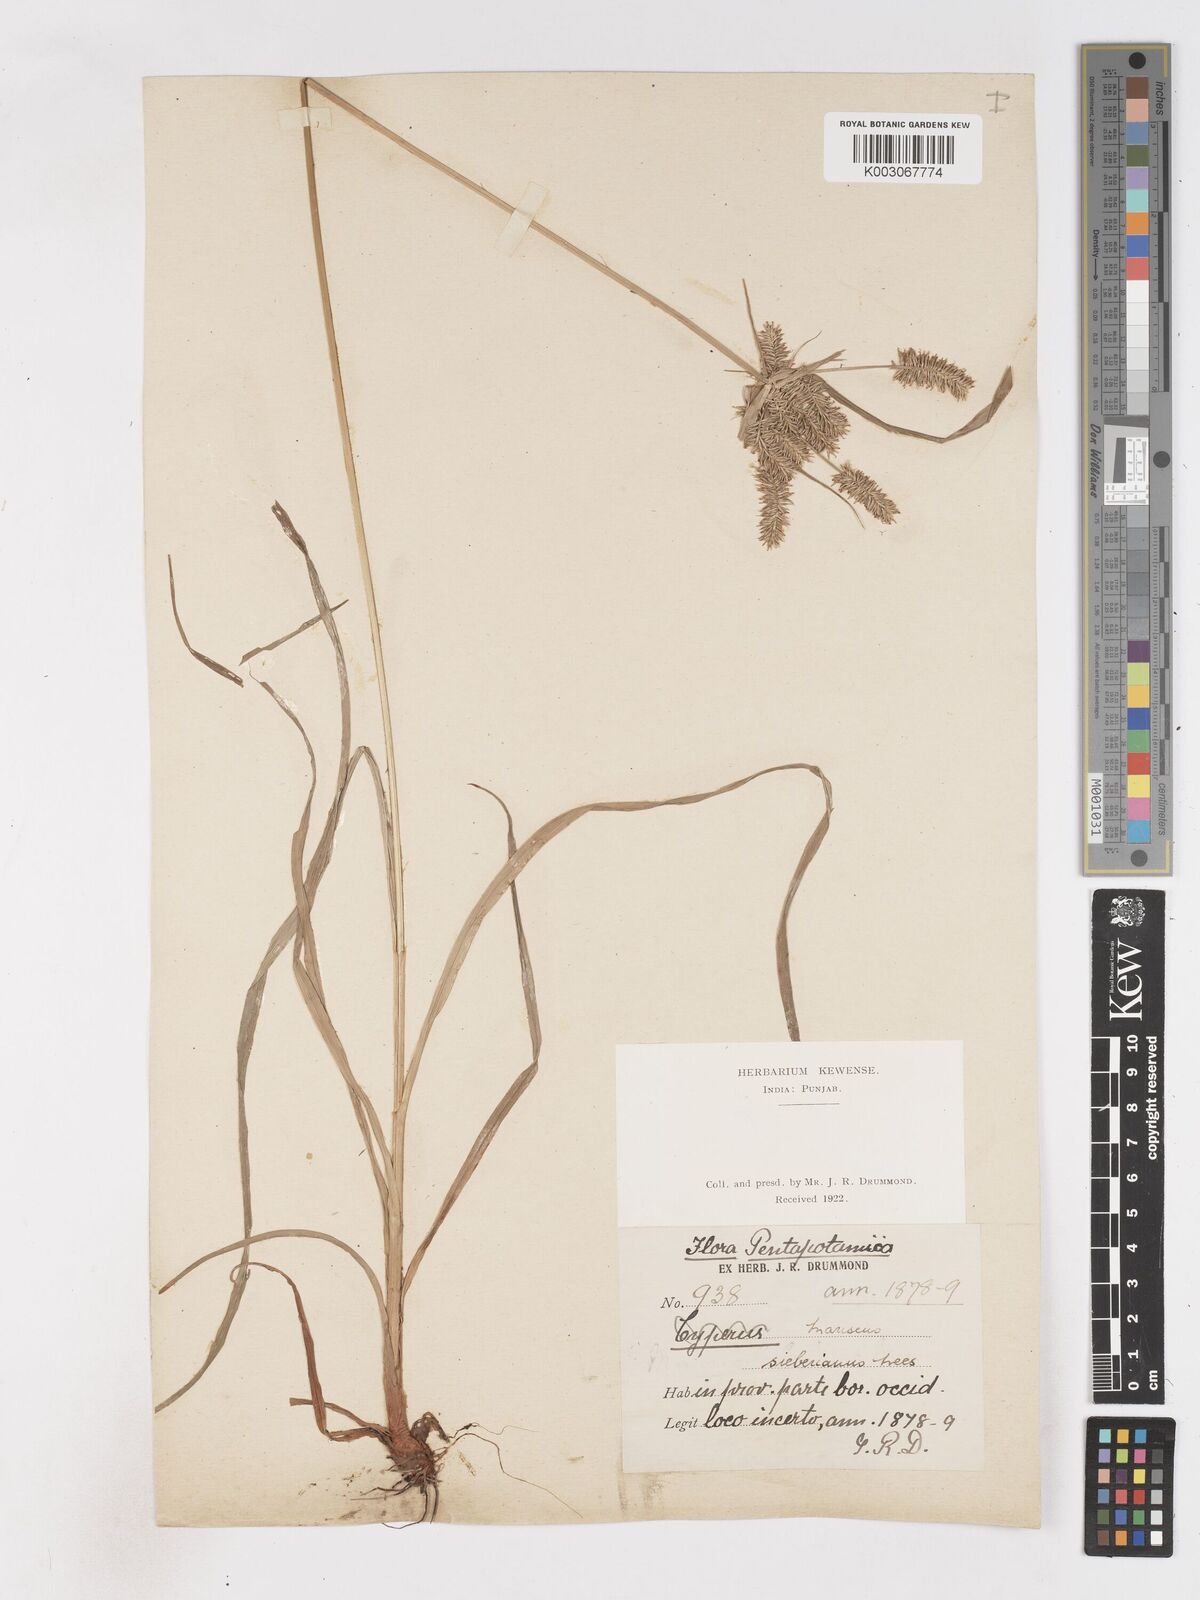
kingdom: Plantae
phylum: Tracheophyta
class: Liliopsida
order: Poales
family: Cyperaceae
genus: Cyperus
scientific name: Cyperus cyperoides
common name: Pacific island flat sedge
